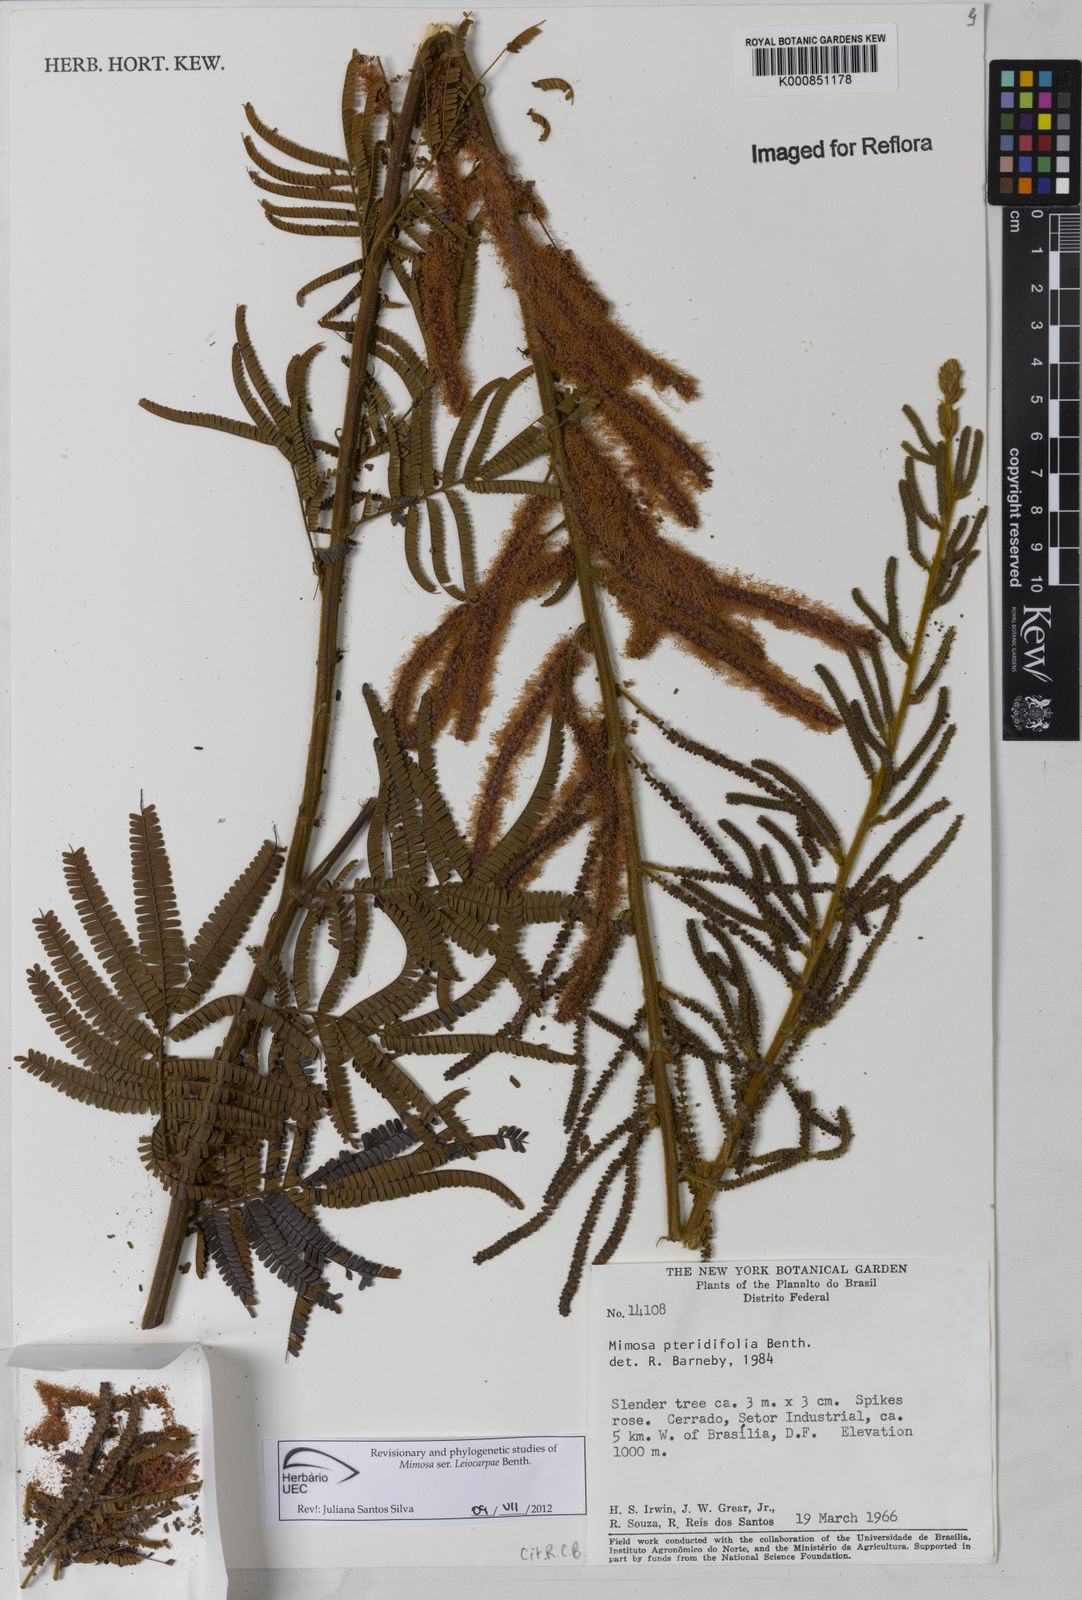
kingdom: Plantae
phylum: Tracheophyta
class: Magnoliopsida
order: Fabales
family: Fabaceae
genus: Mimosa
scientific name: Mimosa pteridifolia
